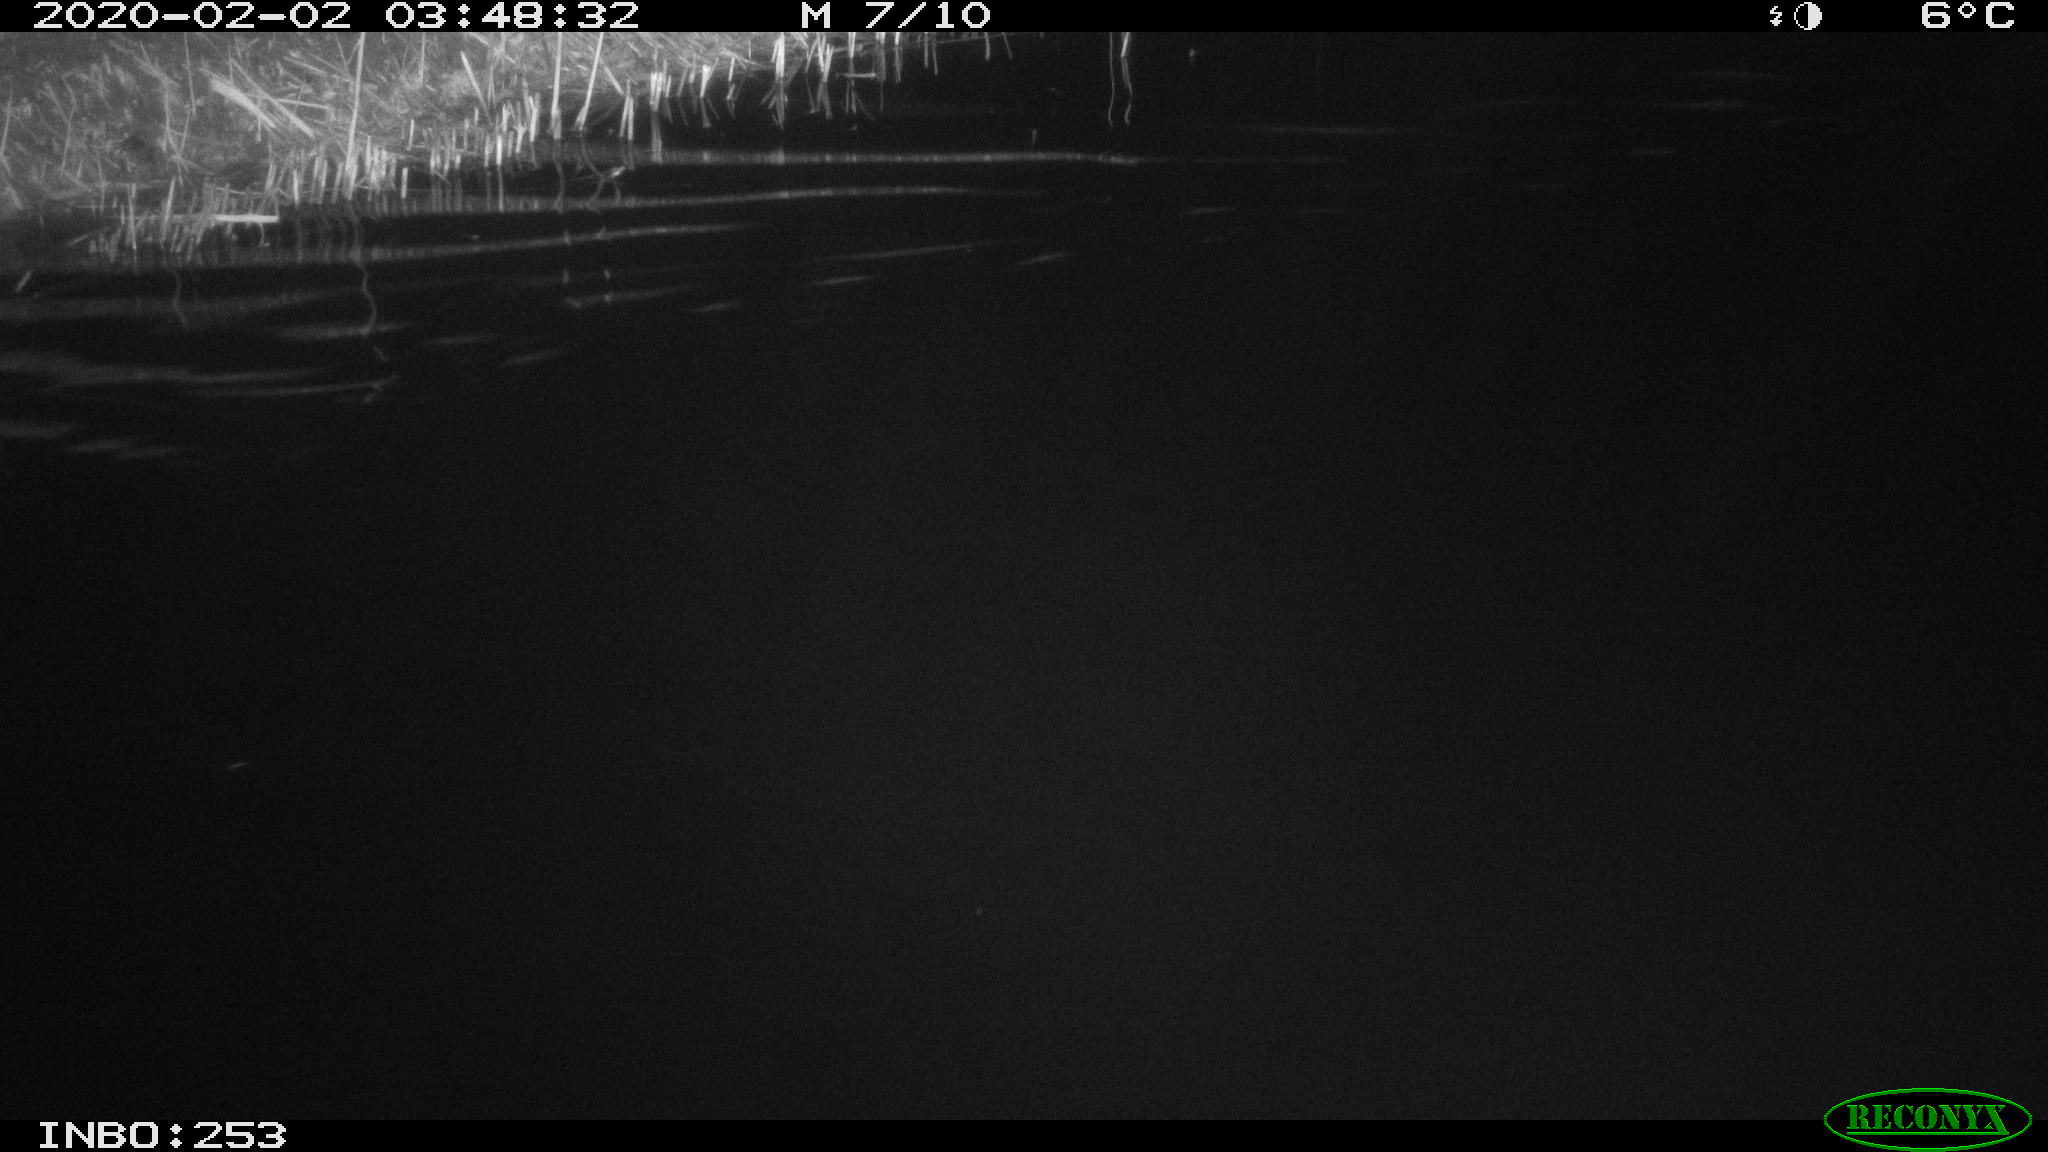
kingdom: Animalia
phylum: Chordata
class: Mammalia
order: Rodentia
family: Cricetidae
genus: Ondatra
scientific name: Ondatra zibethicus
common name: Muskrat
